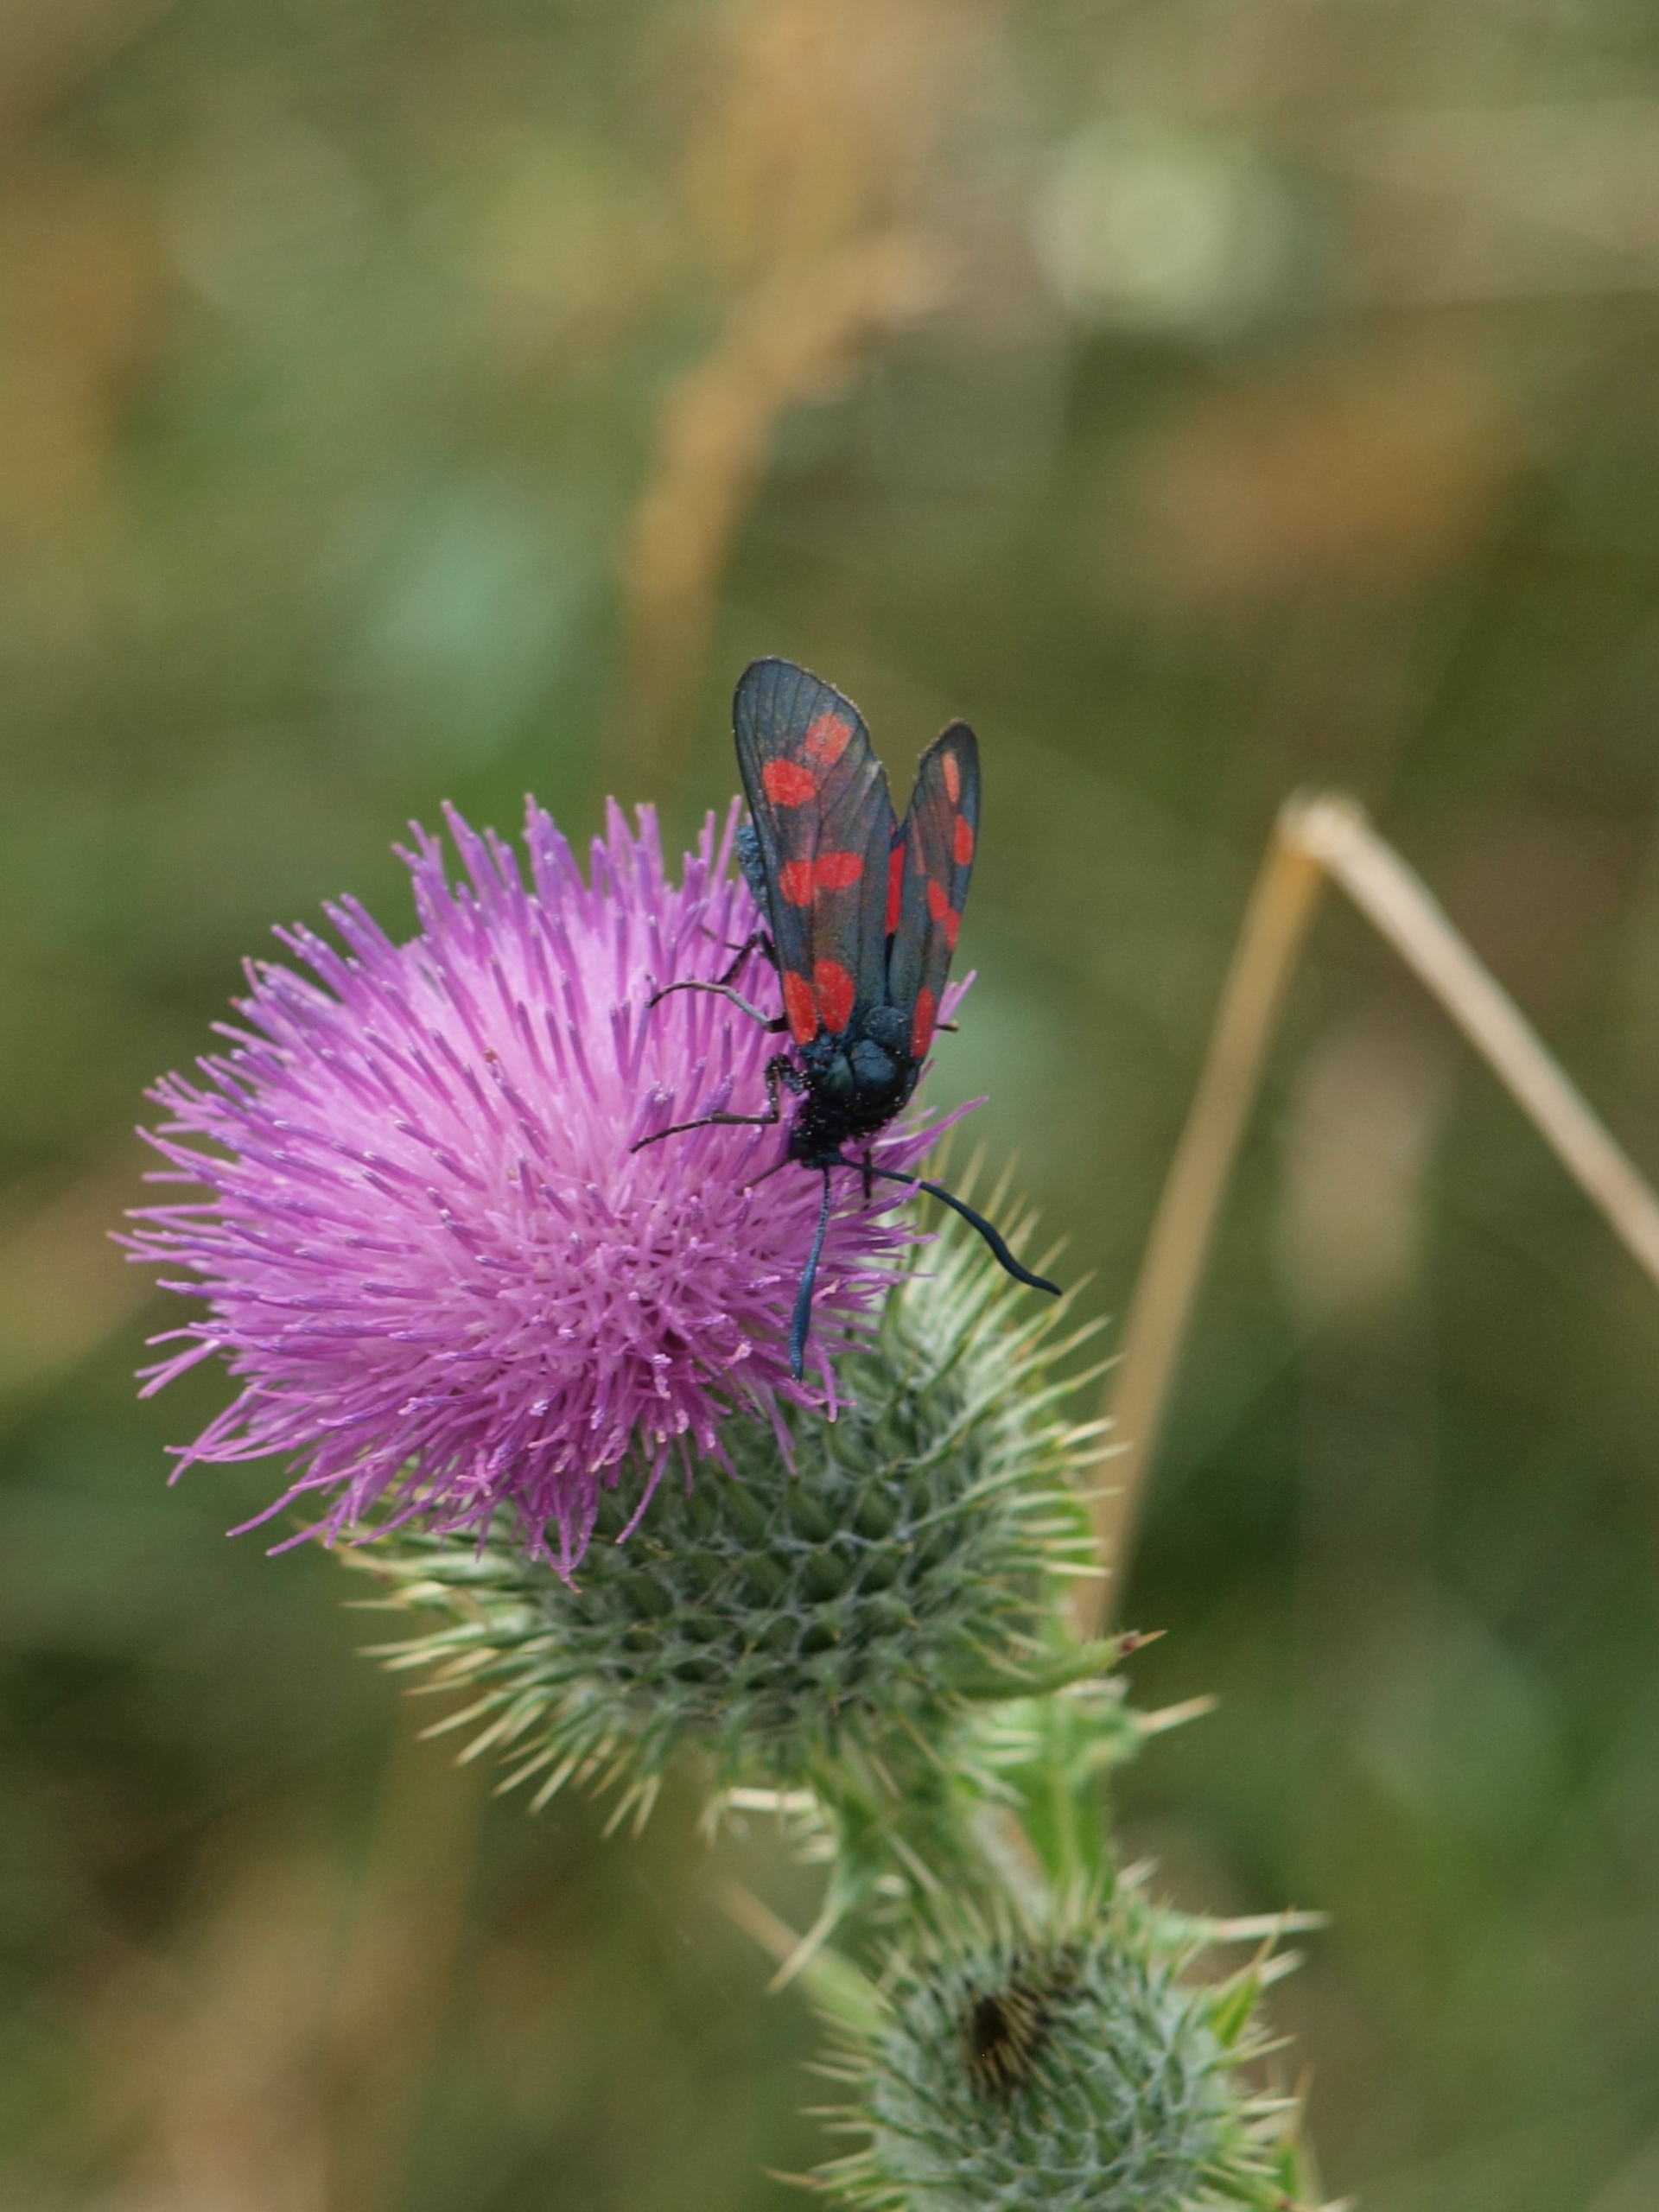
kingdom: Animalia
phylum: Arthropoda
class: Insecta
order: Lepidoptera
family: Zygaenidae
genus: Zygaena
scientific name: Zygaena filipendulae
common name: Seksplettet køllesværmer
